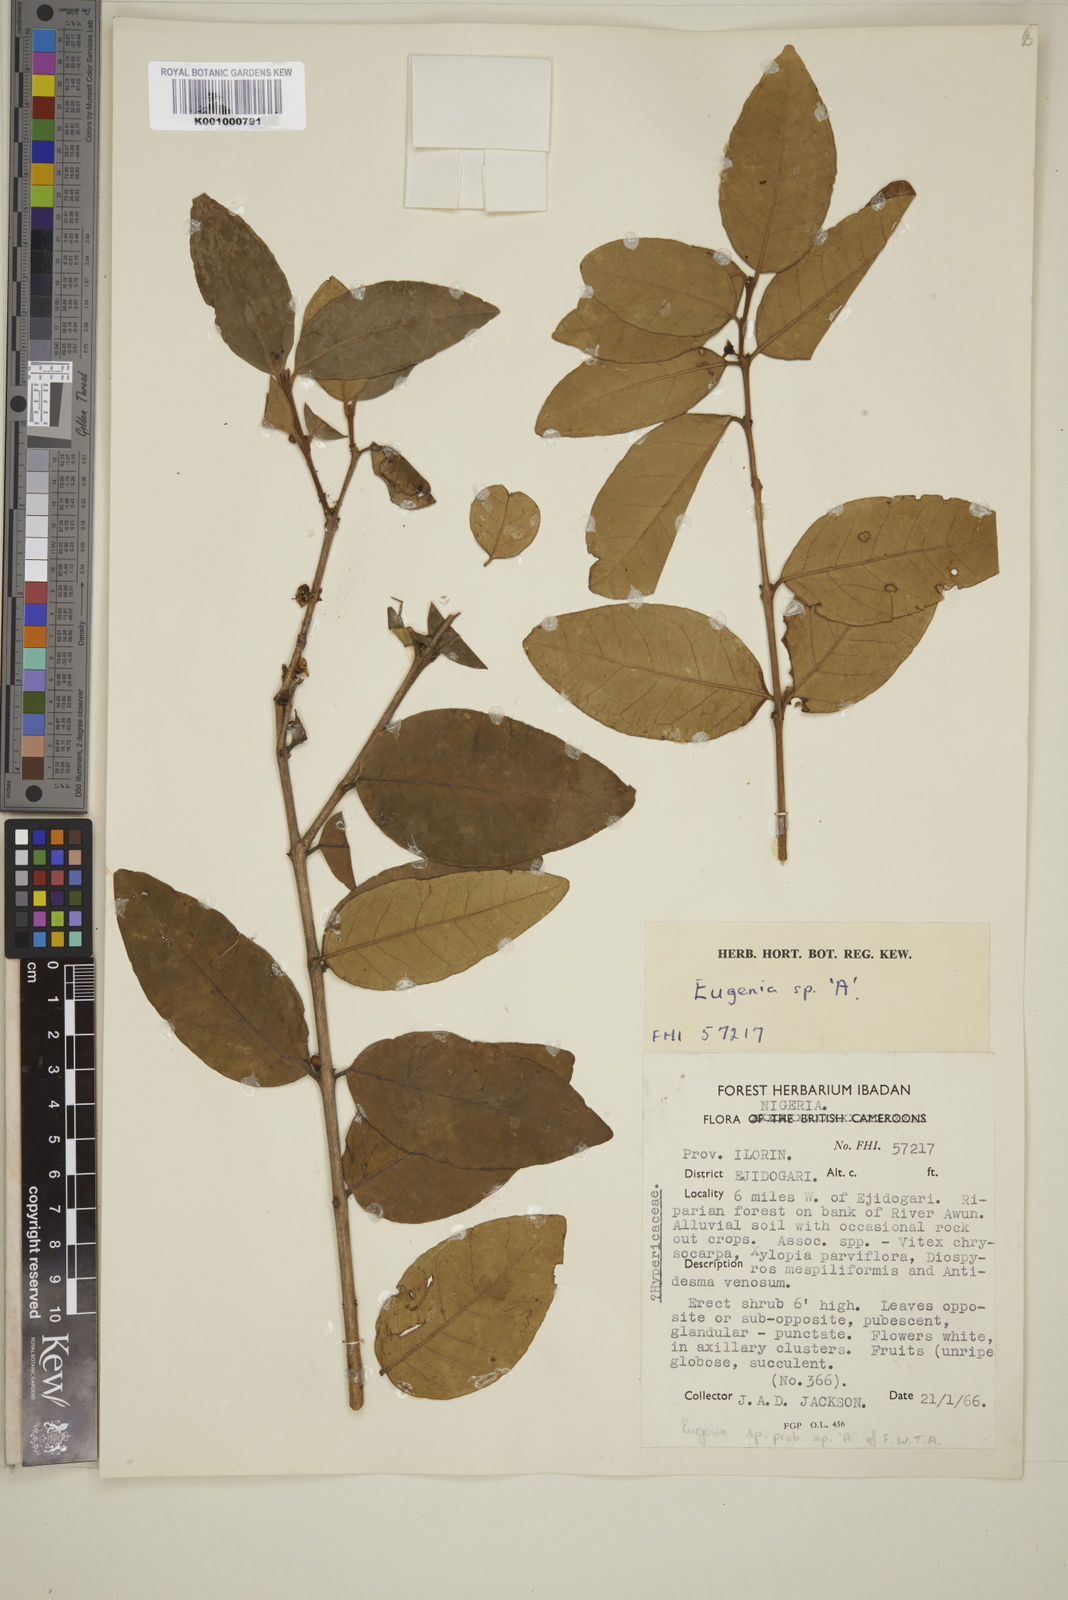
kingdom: Plantae
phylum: Tracheophyta
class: Magnoliopsida
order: Myrtales
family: Myrtaceae
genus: Eugenia
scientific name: Eugenia
